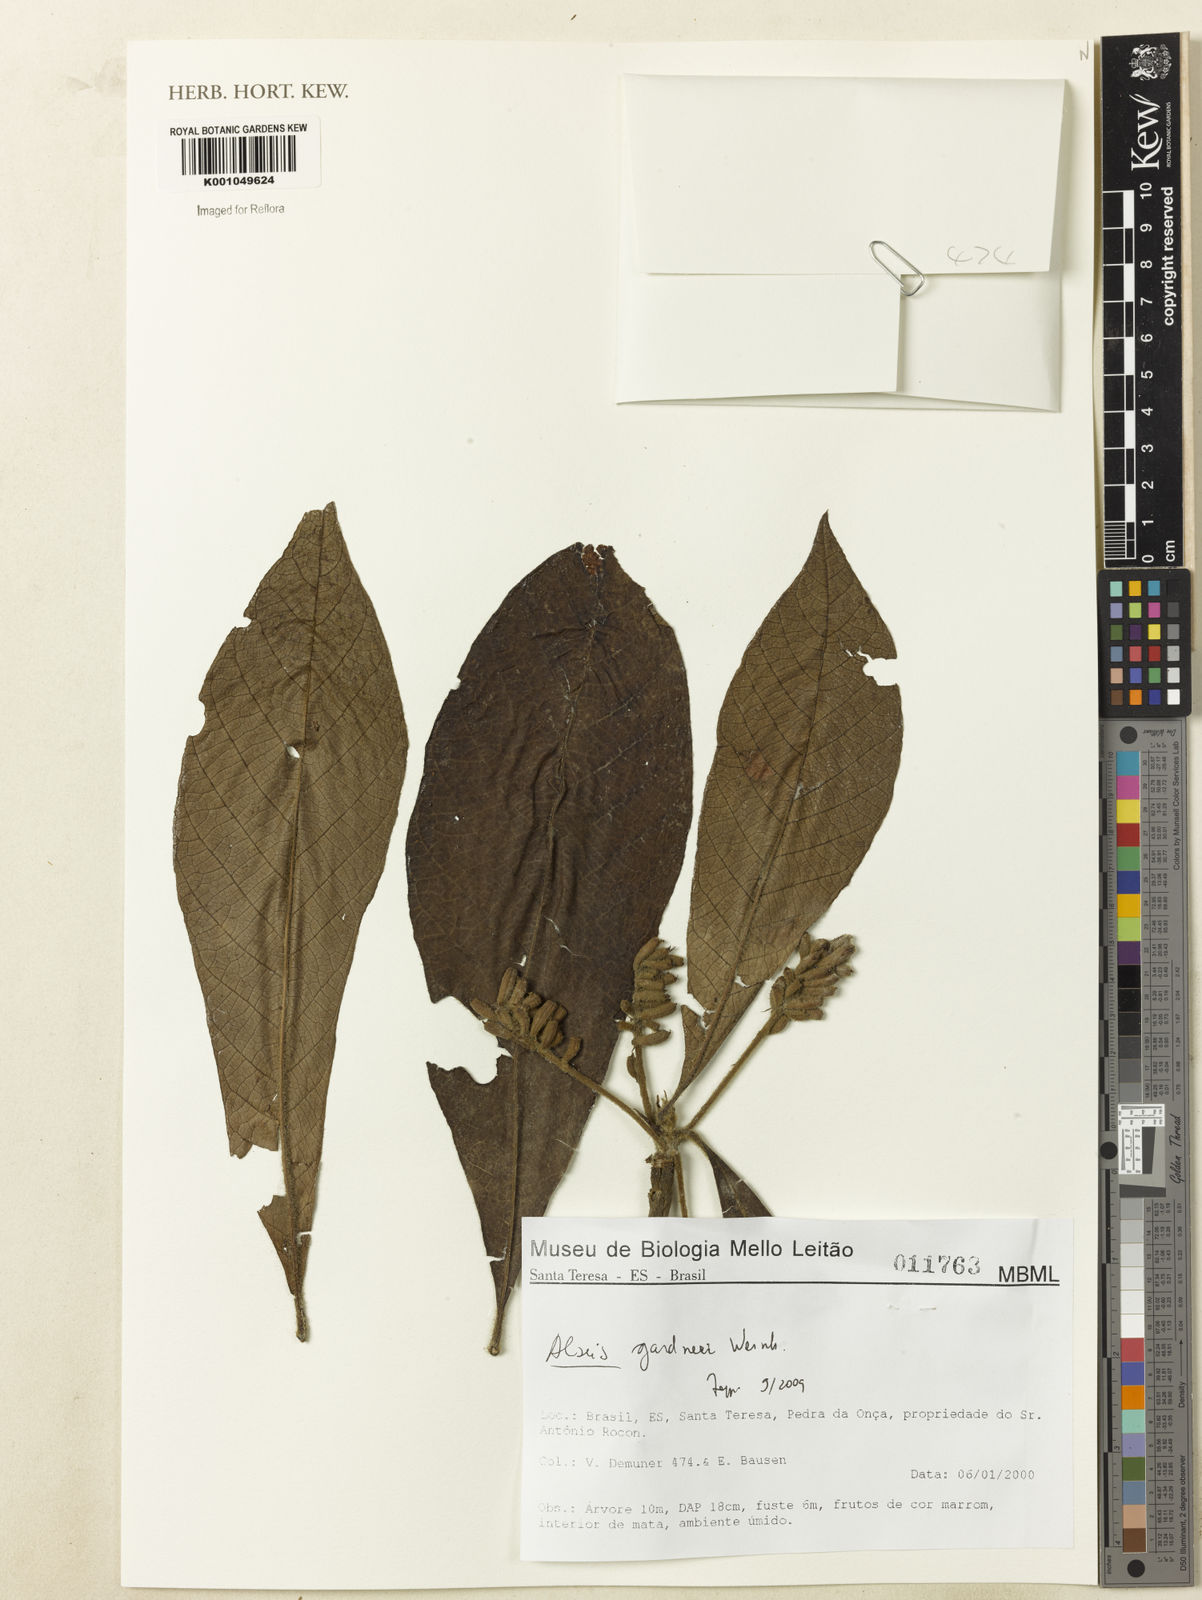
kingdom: Plantae
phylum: Tracheophyta
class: Magnoliopsida
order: Gentianales
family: Rubiaceae
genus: Alseis
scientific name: Alseis gardneri
